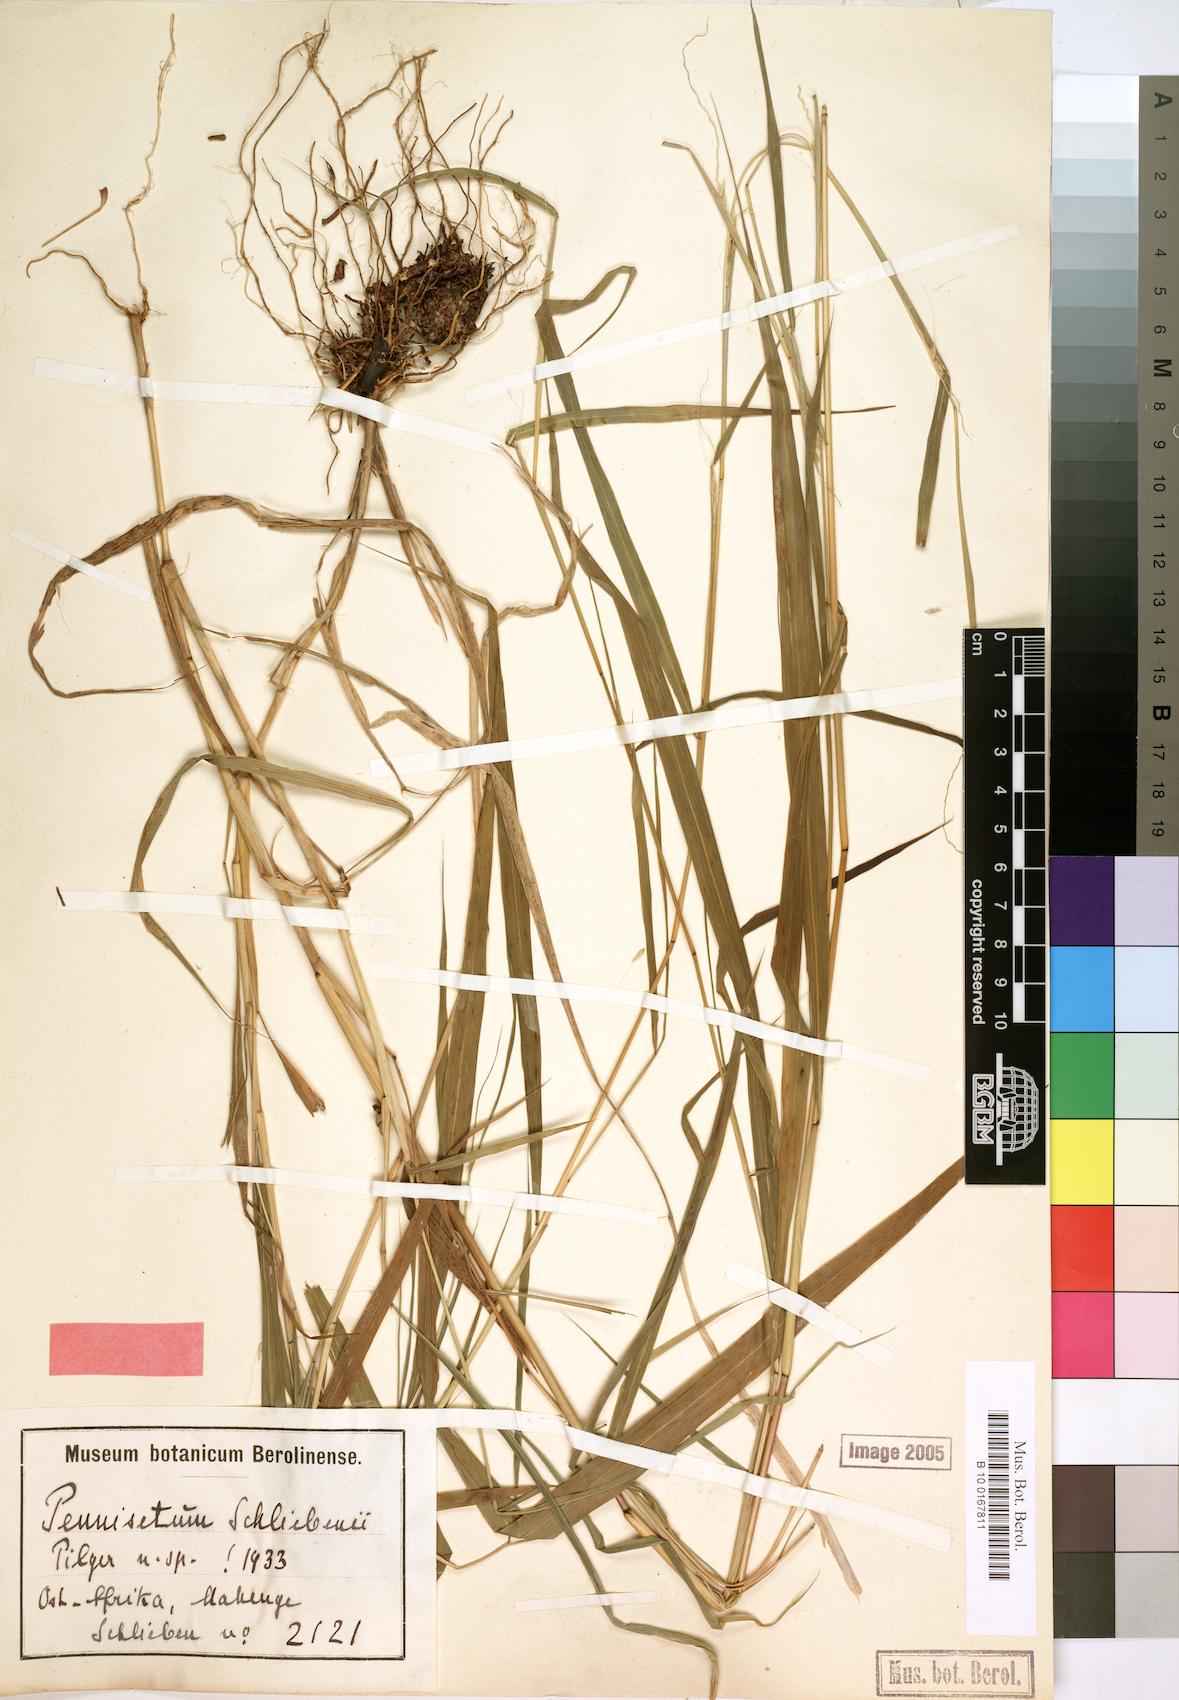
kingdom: Plantae
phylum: Tracheophyta
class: Liliopsida
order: Poales
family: Poaceae
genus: Cenchrus
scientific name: Cenchrus trisetus
